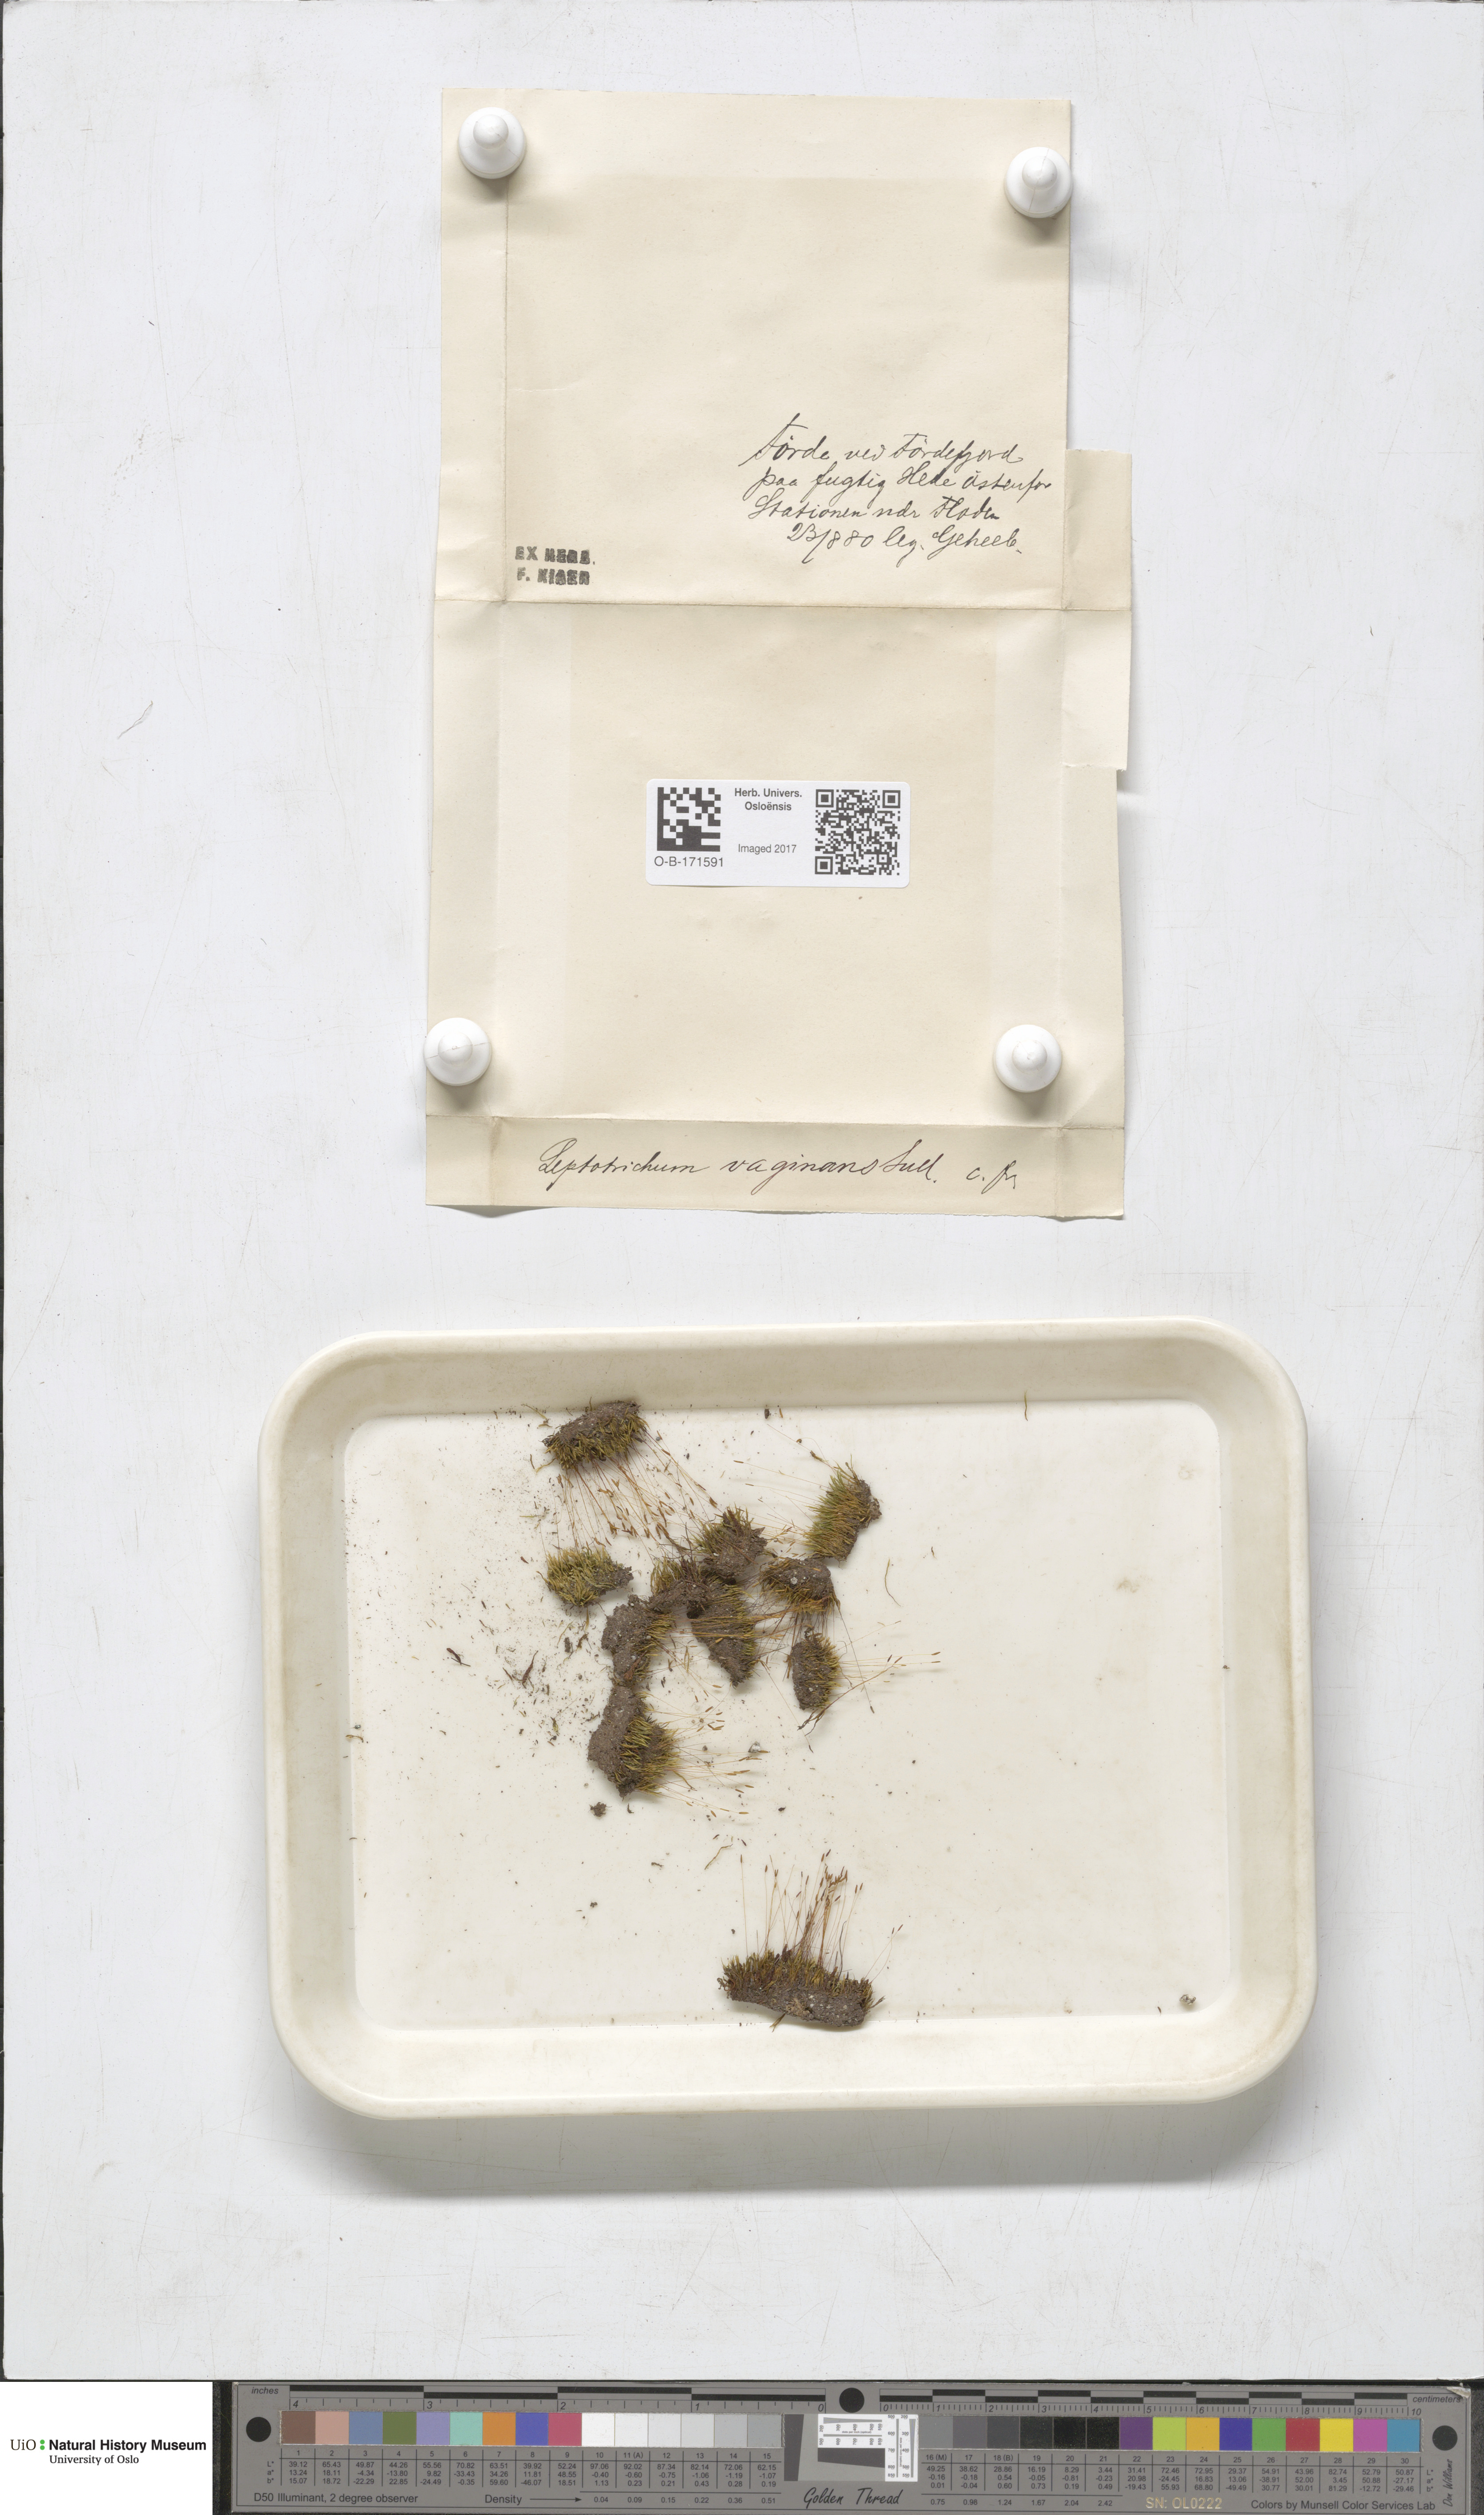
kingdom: Plantae
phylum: Bryophyta
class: Bryopsida
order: Dicranales
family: Ditrichaceae
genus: Ditrichum
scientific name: Ditrichum lineare
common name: Dark cow-hair moss
